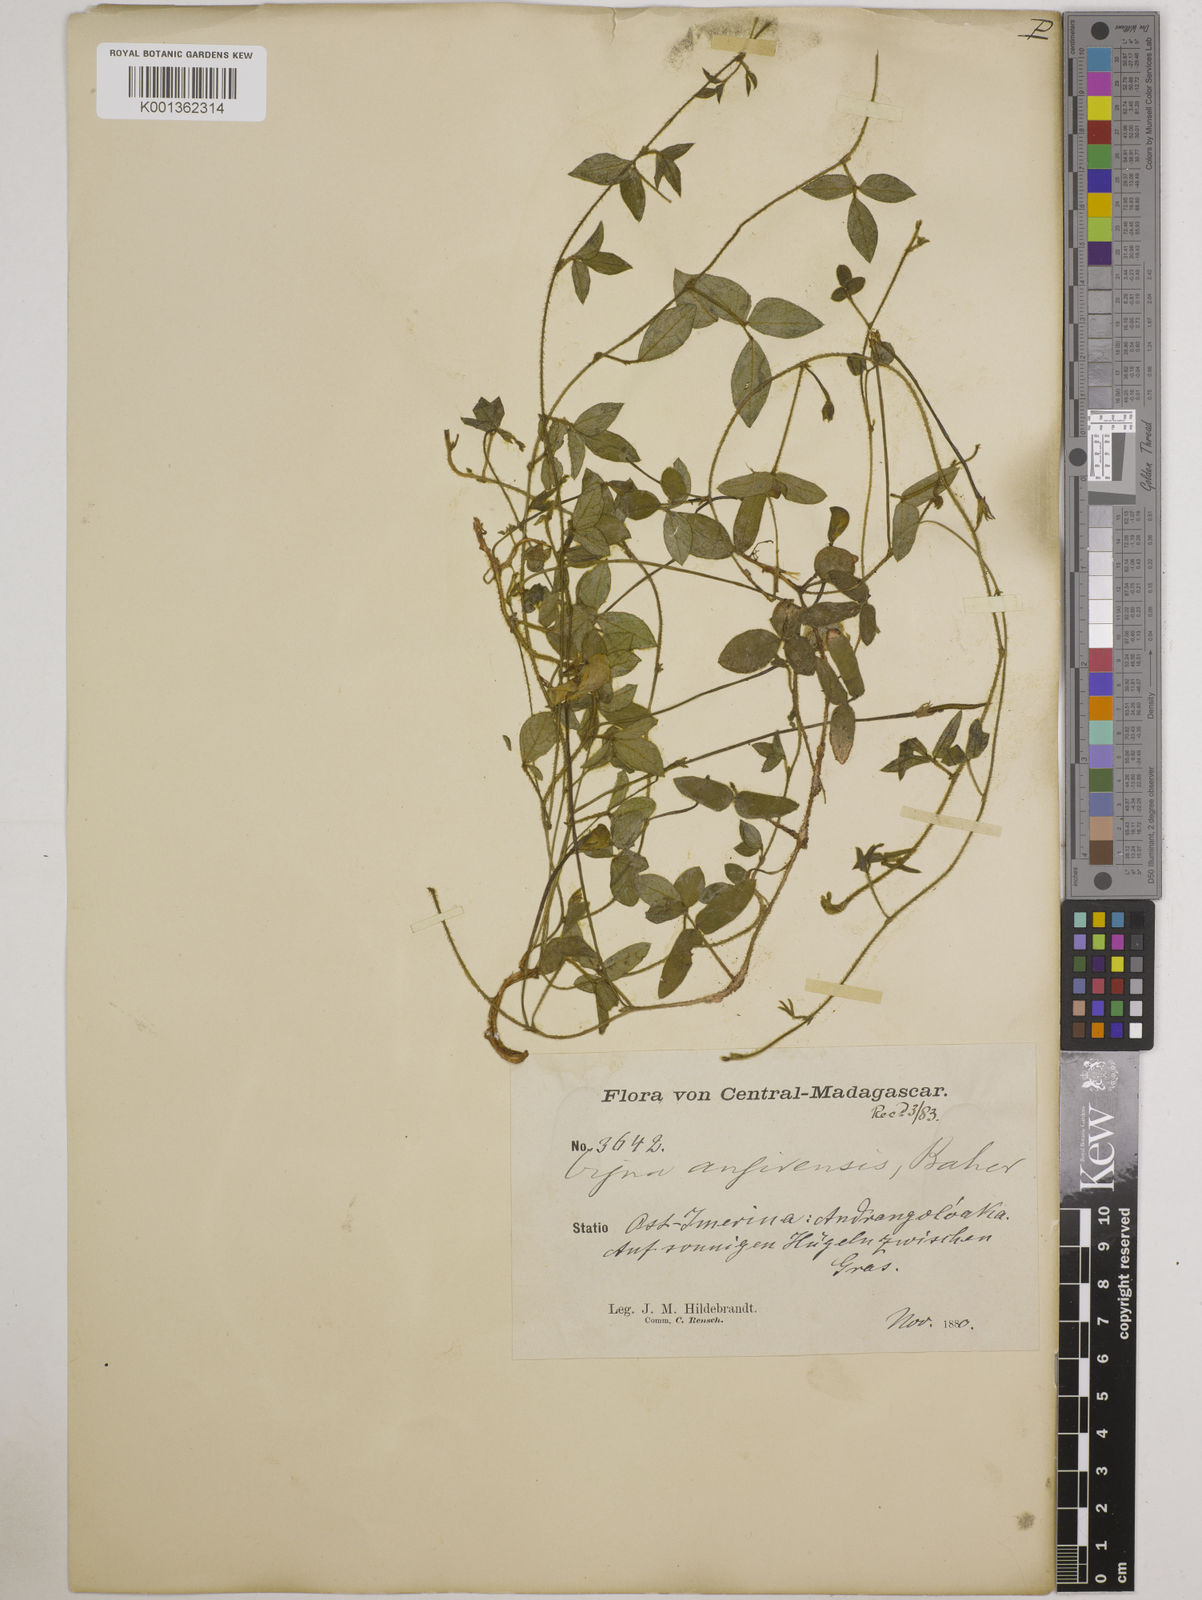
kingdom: Plantae
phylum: Tracheophyta
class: Magnoliopsida
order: Fabales
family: Fabaceae
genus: Vigna
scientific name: Vigna angivensis
